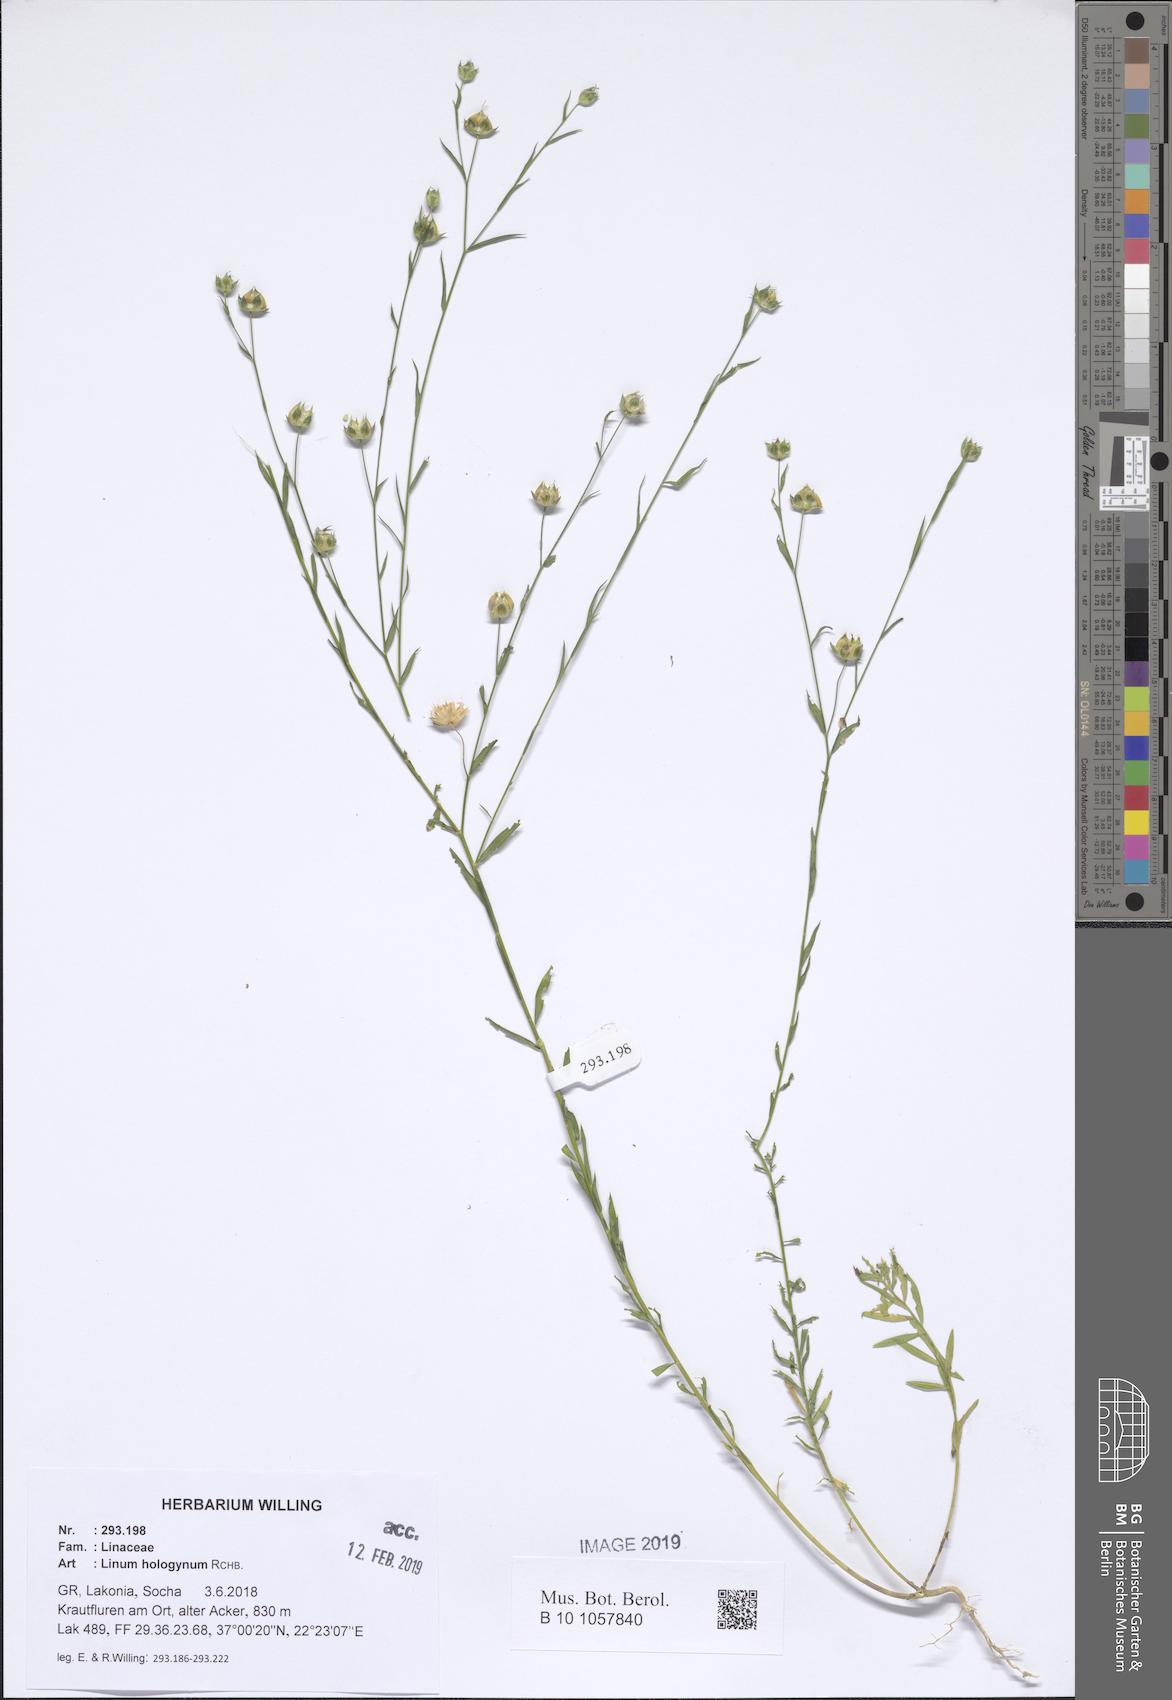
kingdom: Plantae
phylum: Tracheophyta
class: Magnoliopsida
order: Malpighiales
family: Linaceae
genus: Linum
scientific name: Linum bienne
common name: Pale flax
